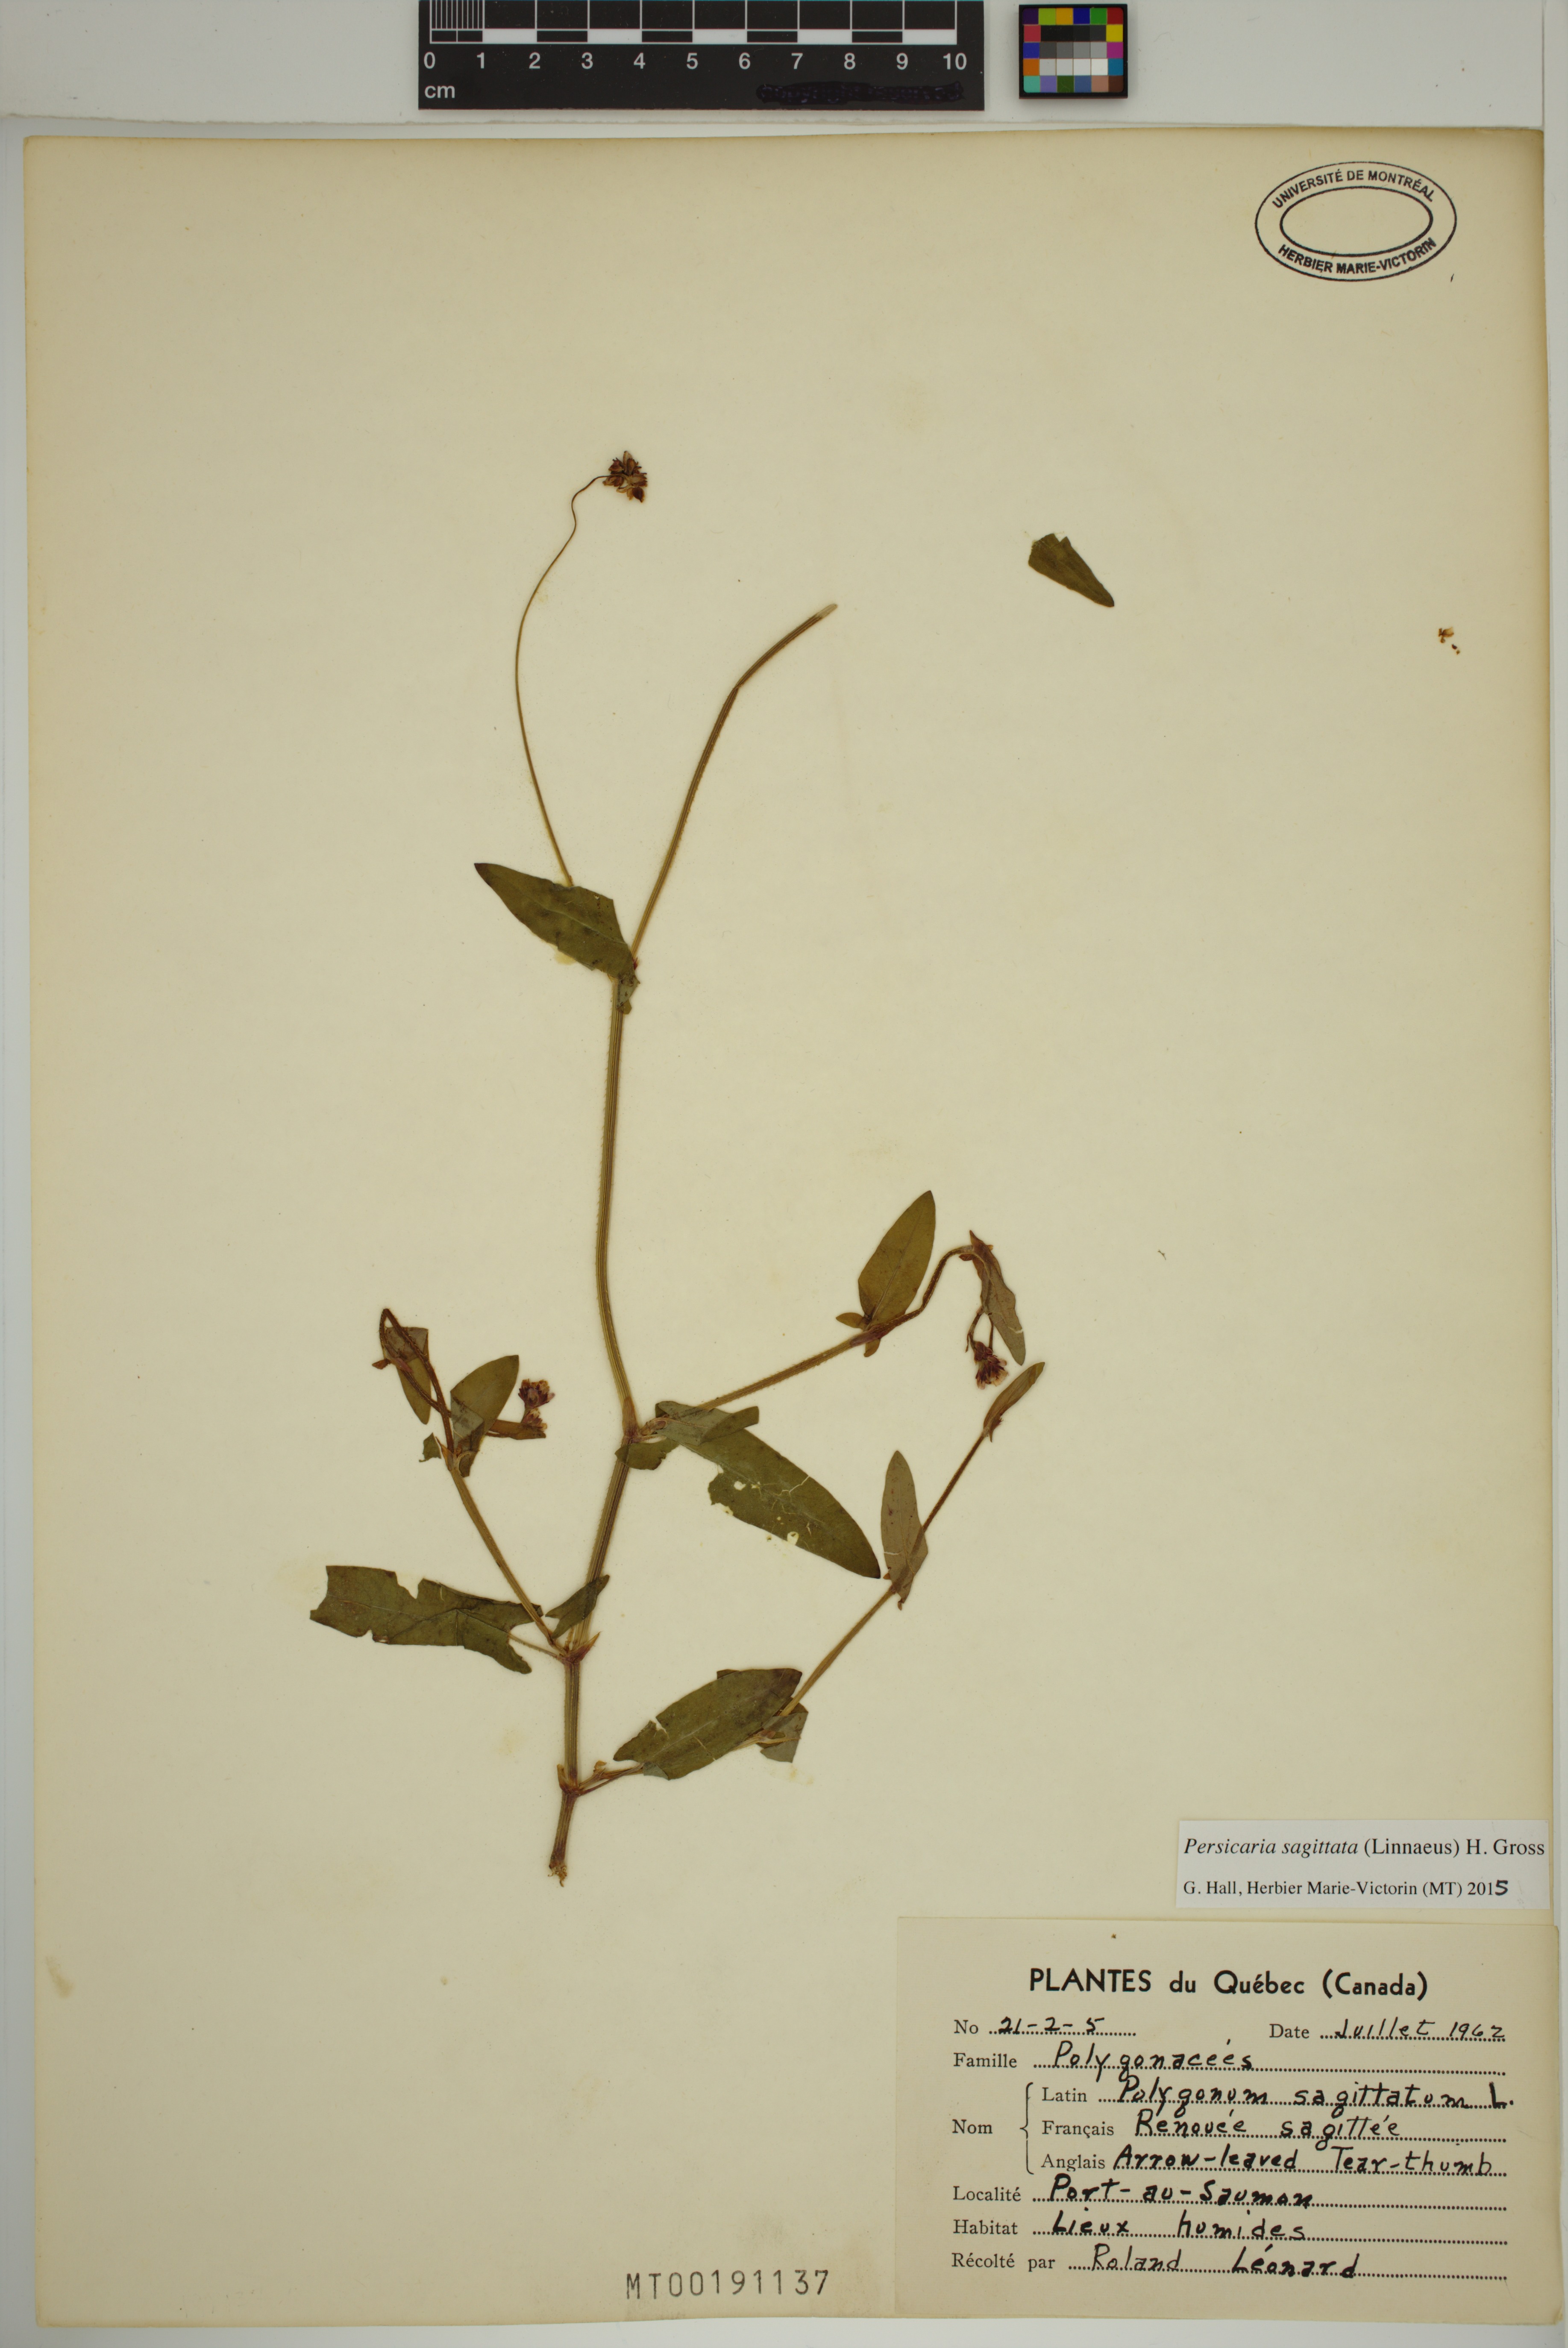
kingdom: Plantae
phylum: Tracheophyta
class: Magnoliopsida
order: Caryophyllales
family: Polygonaceae
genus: Persicaria
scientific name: Persicaria sagittata
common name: American tearthumb
